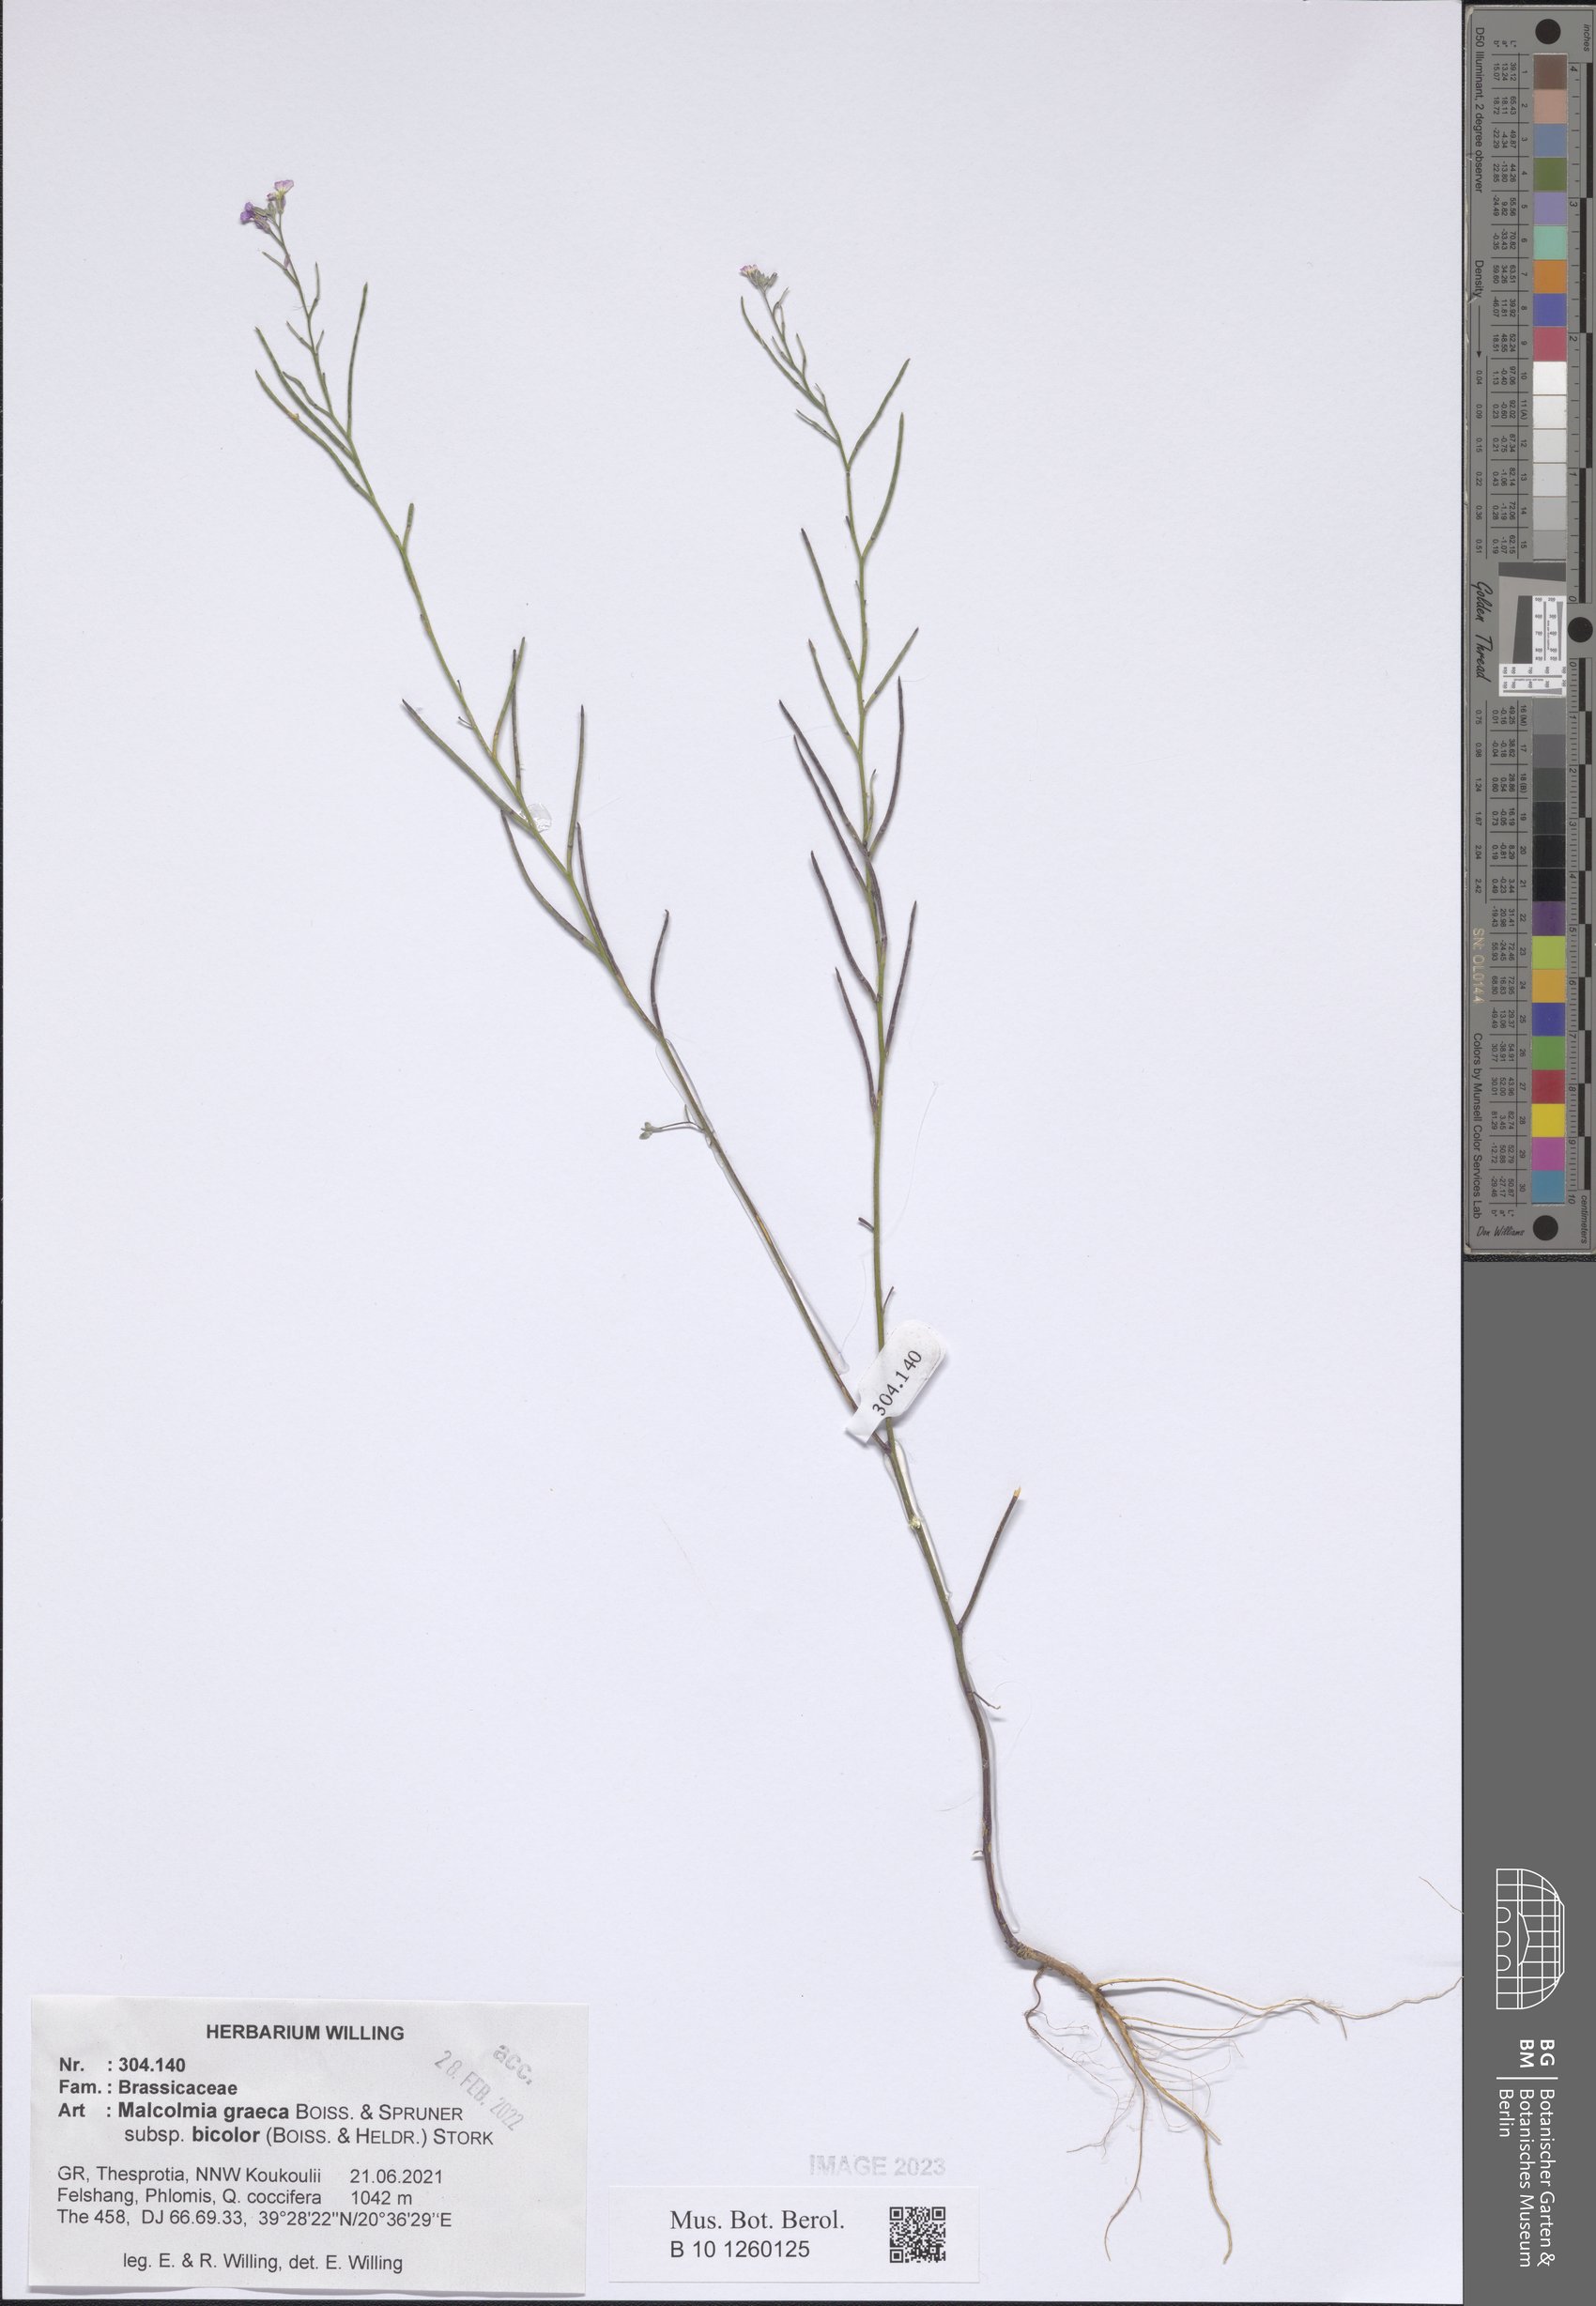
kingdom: Plantae
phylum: Tracheophyta
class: Magnoliopsida
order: Brassicales
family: Brassicaceae
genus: Malcolmia
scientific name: Malcolmia graeca
